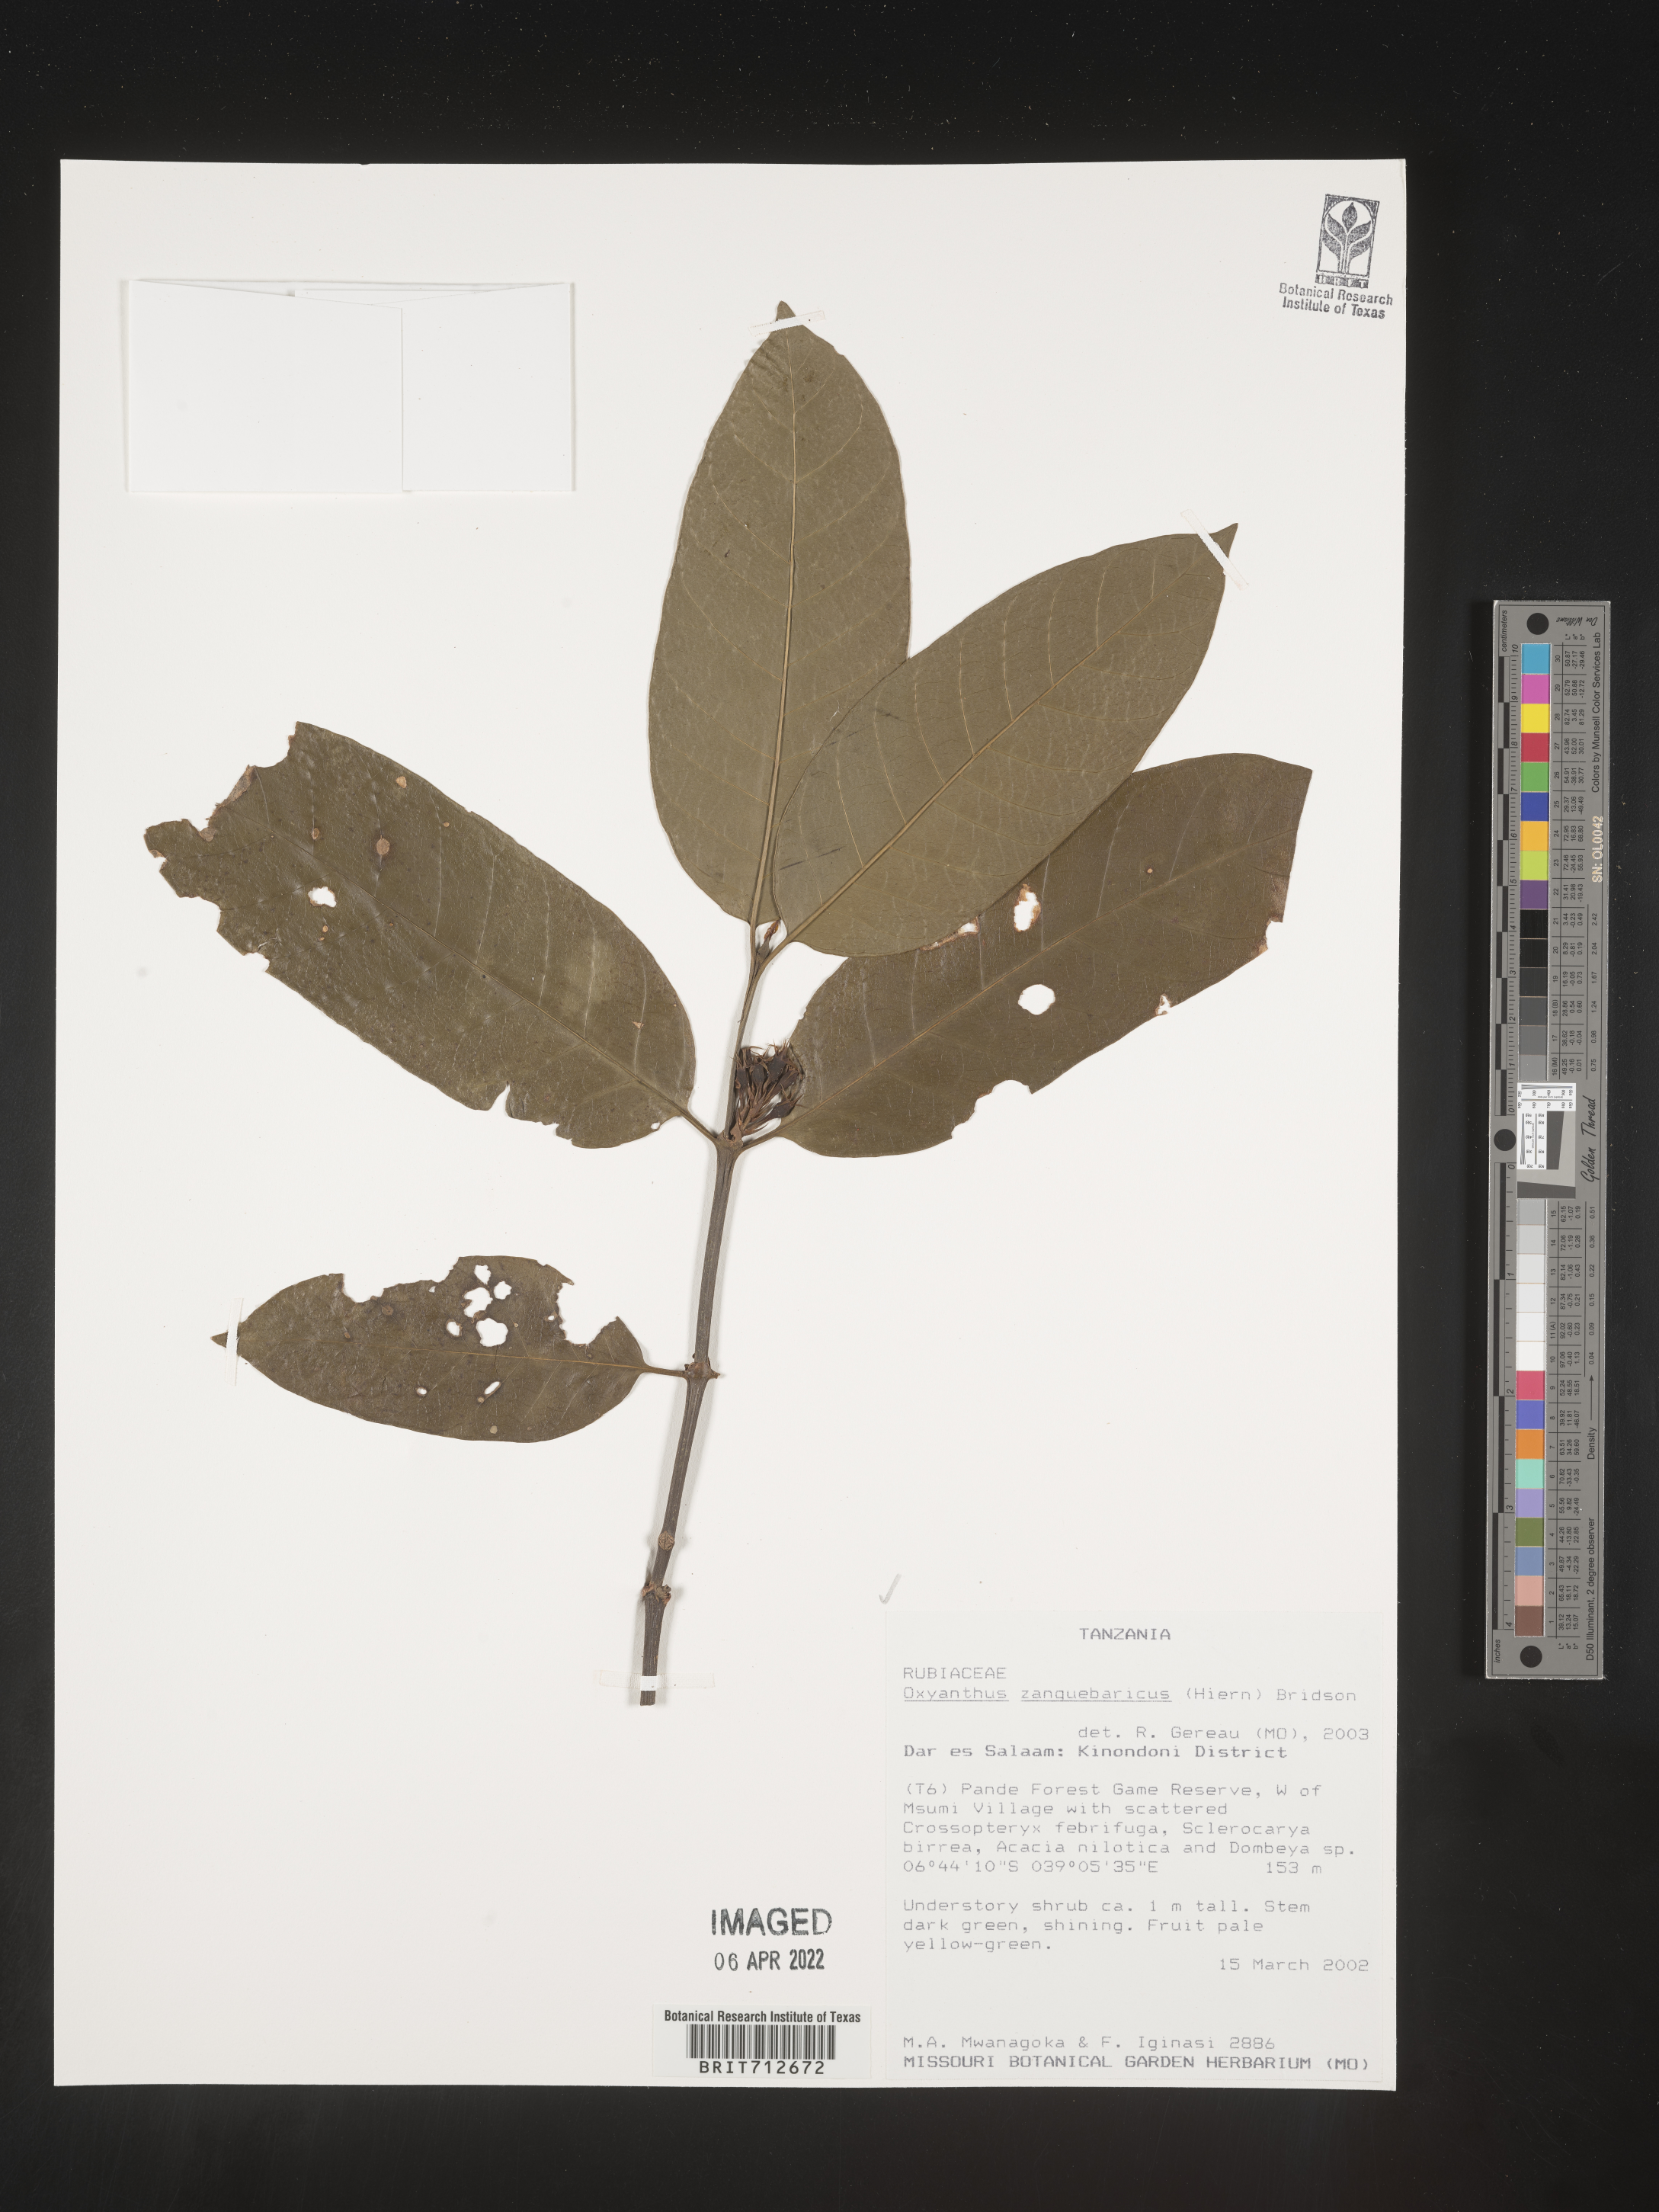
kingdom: Plantae
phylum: Tracheophyta
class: Magnoliopsida
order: Gentianales
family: Rubiaceae
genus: Oxyanthus
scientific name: Oxyanthus
